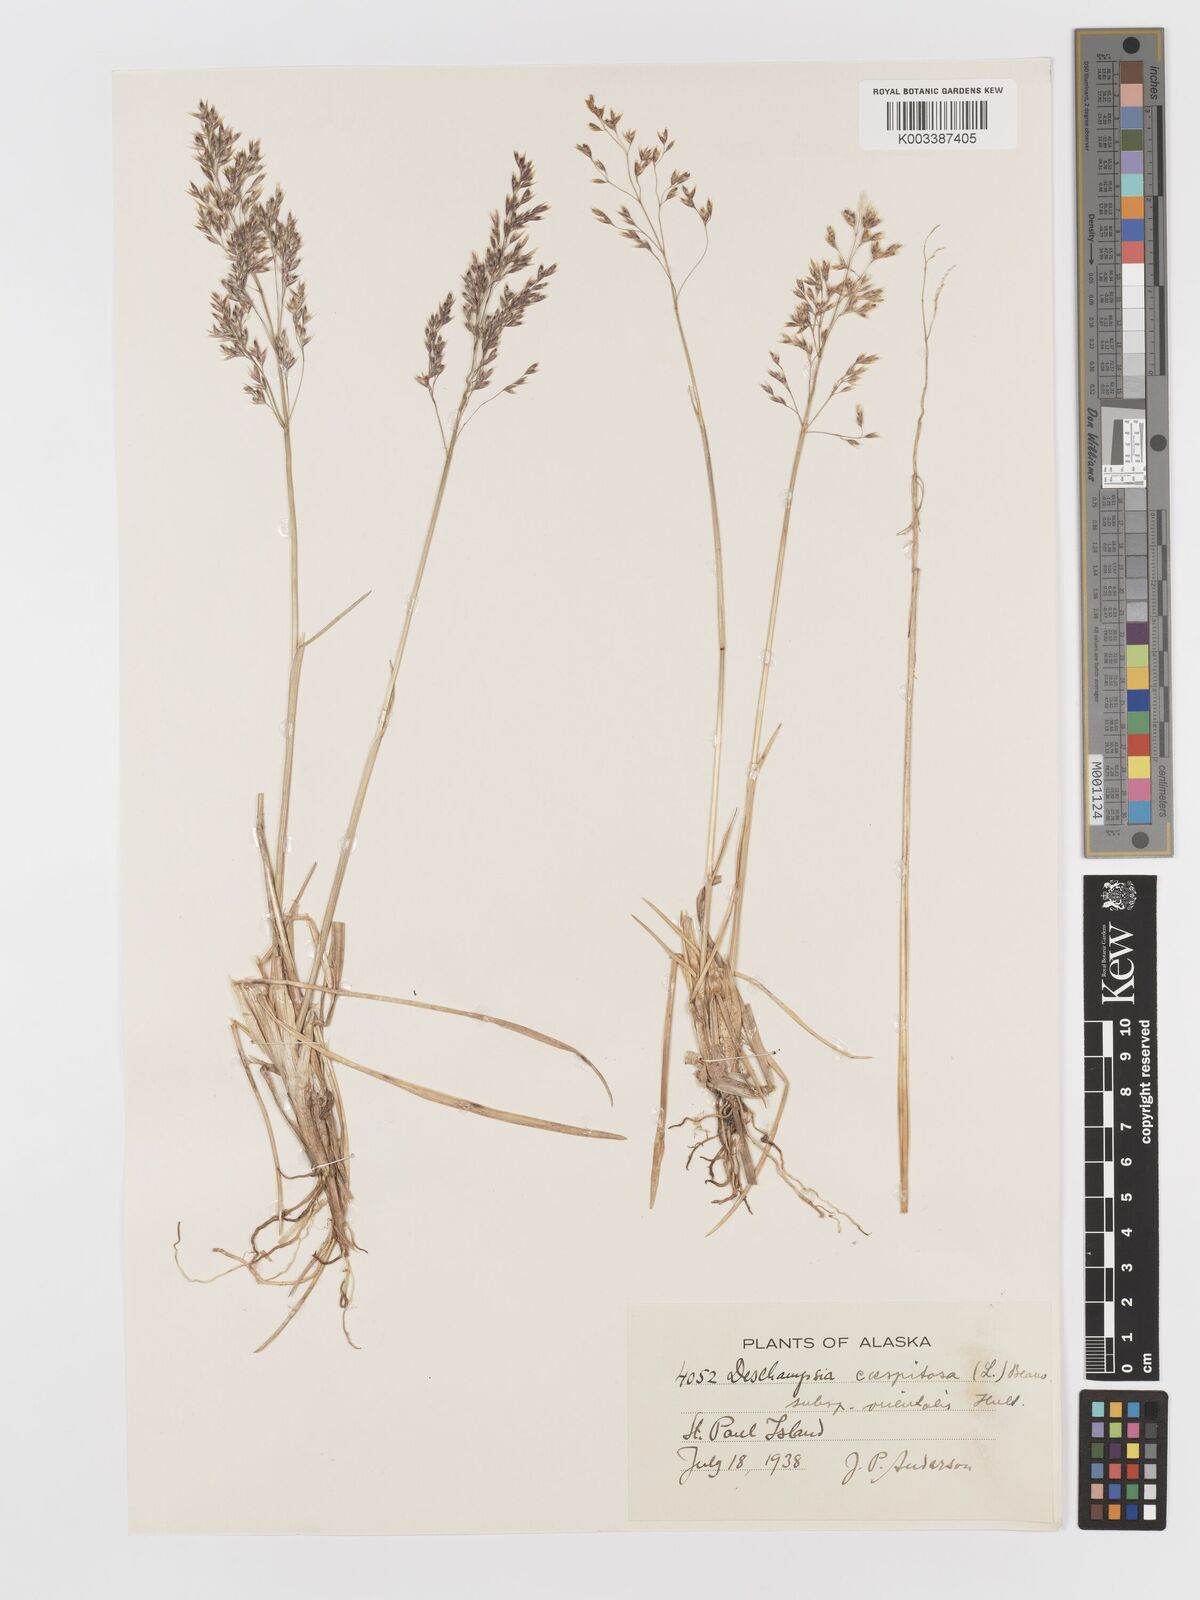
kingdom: Plantae
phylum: Tracheophyta
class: Liliopsida
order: Poales
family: Poaceae
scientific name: Poaceae
